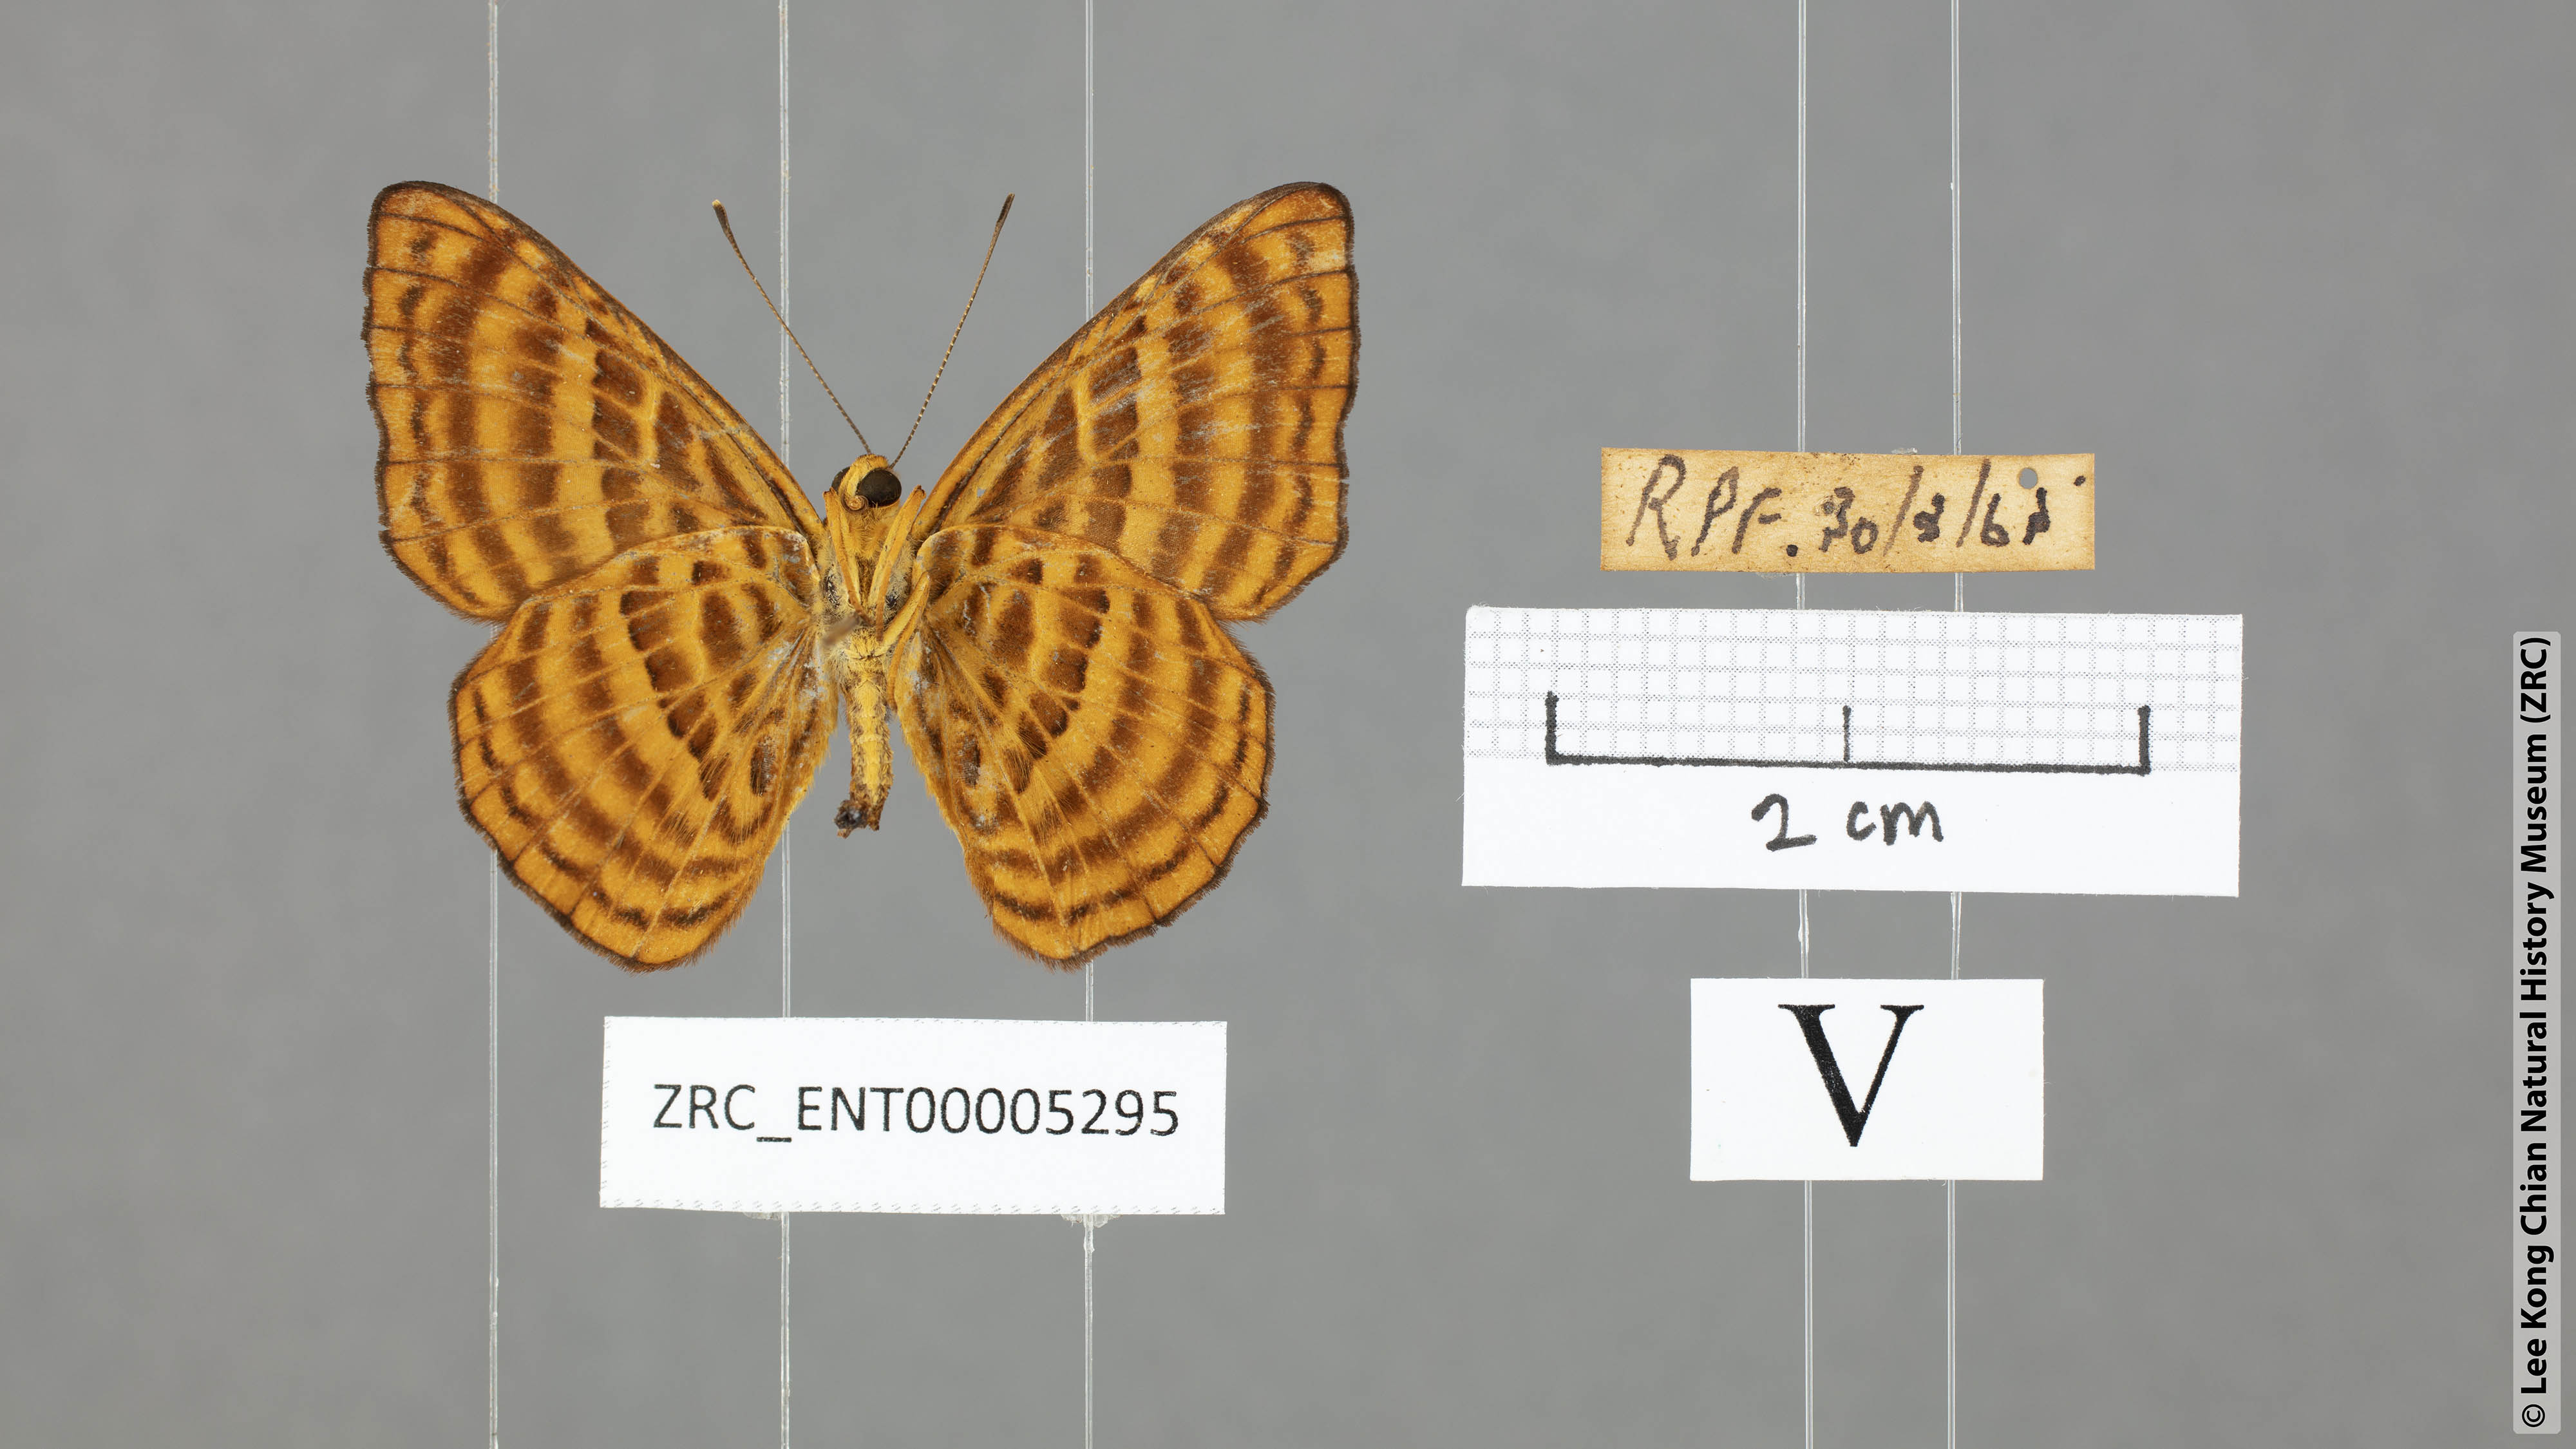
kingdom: Animalia
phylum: Arthropoda
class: Insecta
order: Lepidoptera
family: Riodinidae
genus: Zemeros
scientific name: Zemeros emesoides
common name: Malay punchinello
